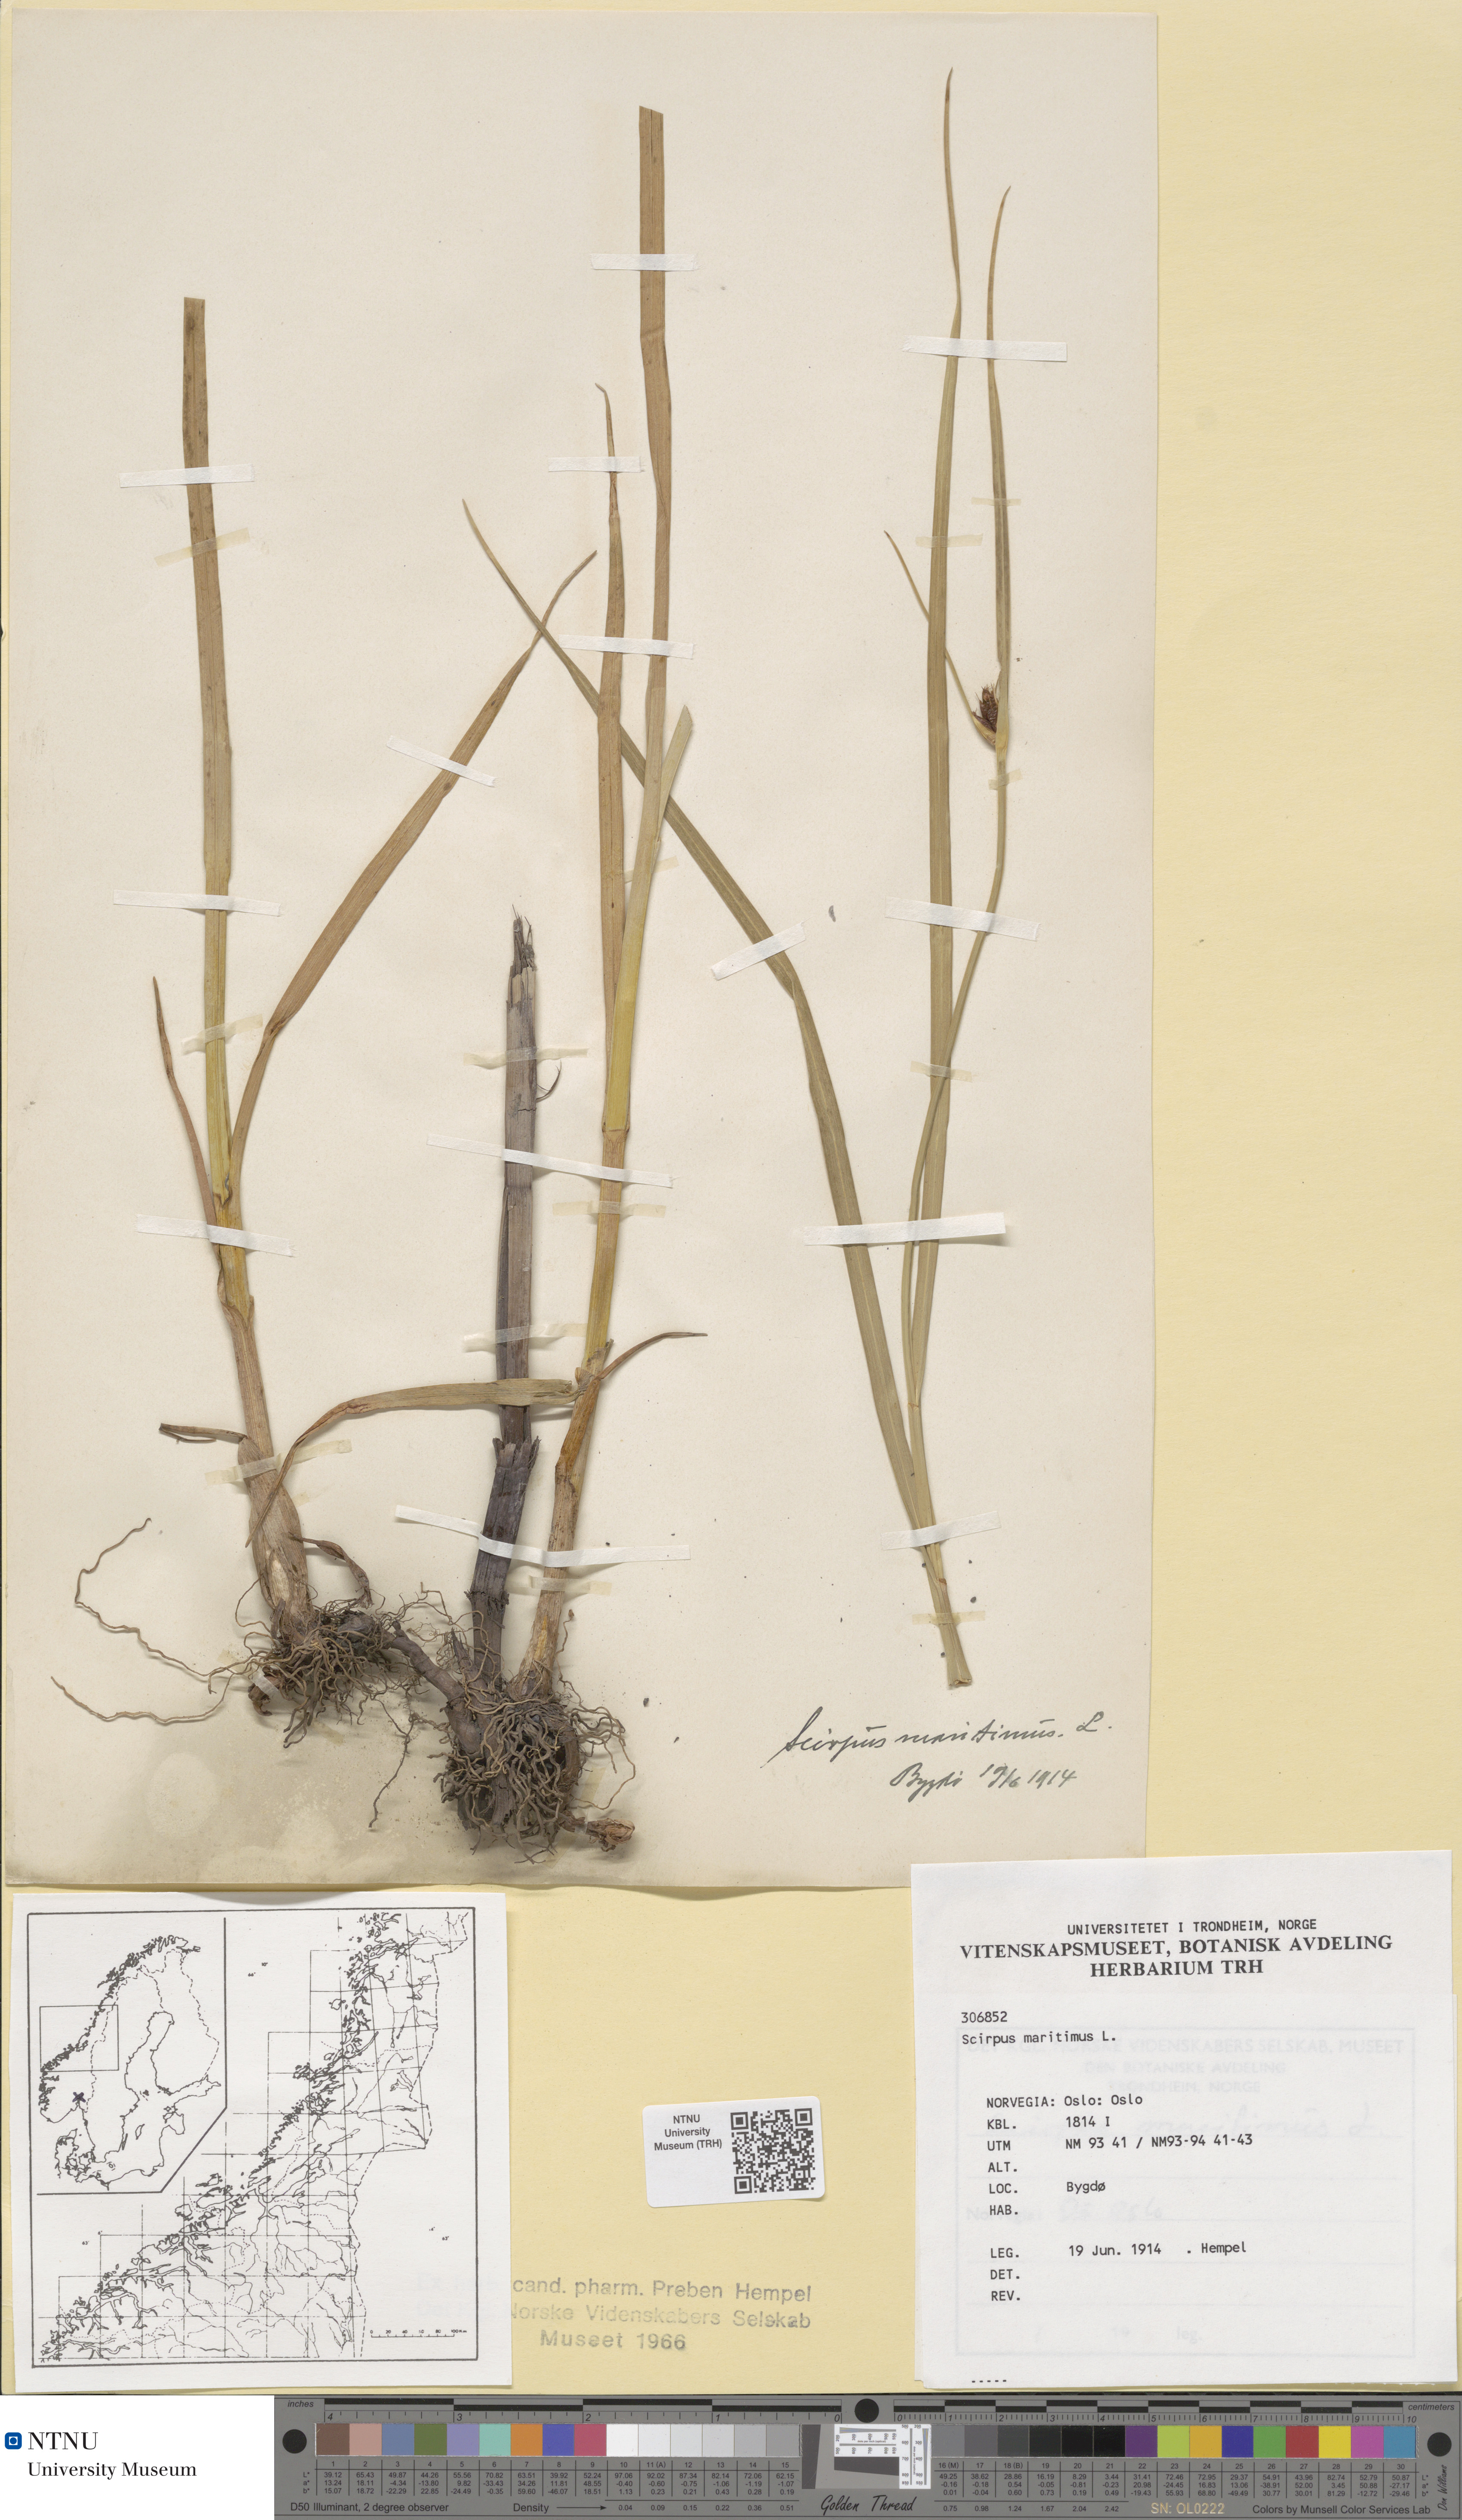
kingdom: Plantae
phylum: Tracheophyta
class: Liliopsida
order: Poales
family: Cyperaceae
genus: Bolboschoenus
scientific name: Bolboschoenus maritimus
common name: Sea club-rush
